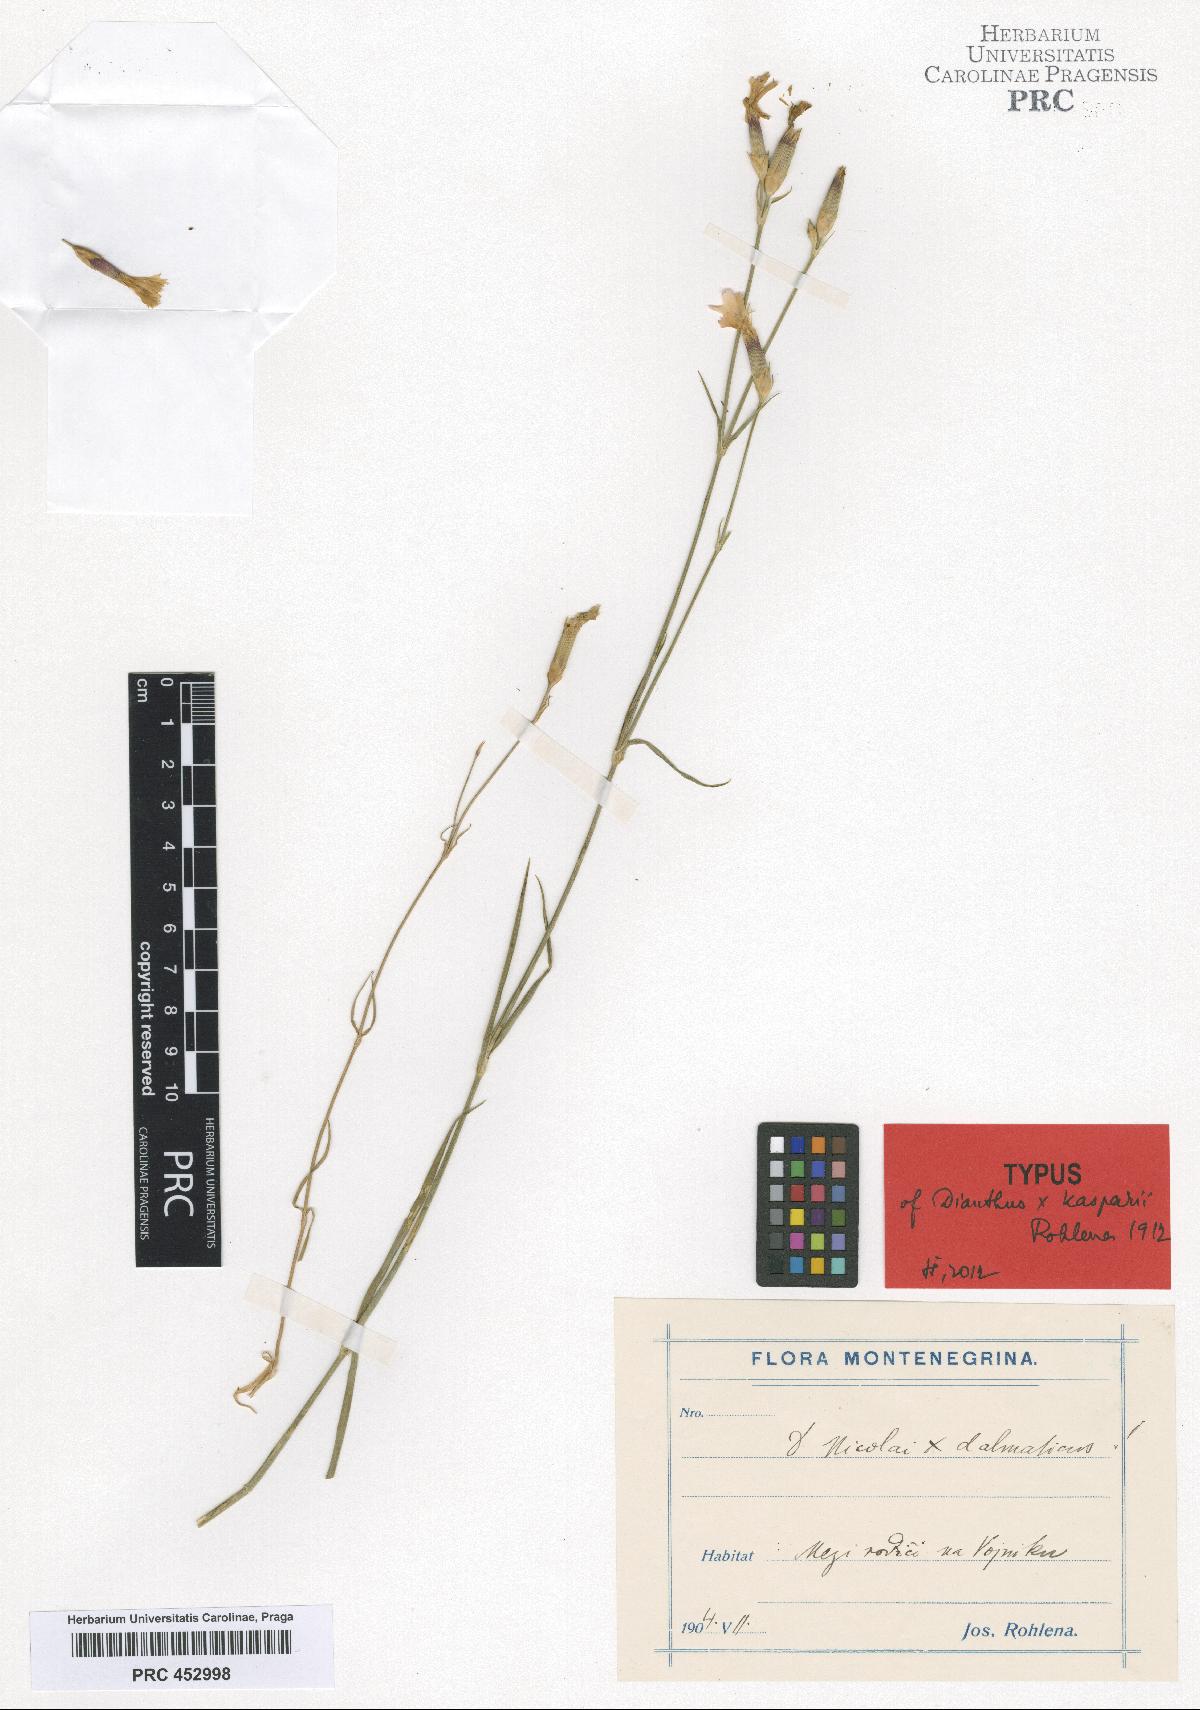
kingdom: Plantae
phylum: Tracheophyta
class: Magnoliopsida
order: Caryophyllales
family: Caryophyllaceae
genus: Dianthus
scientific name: Dianthus
